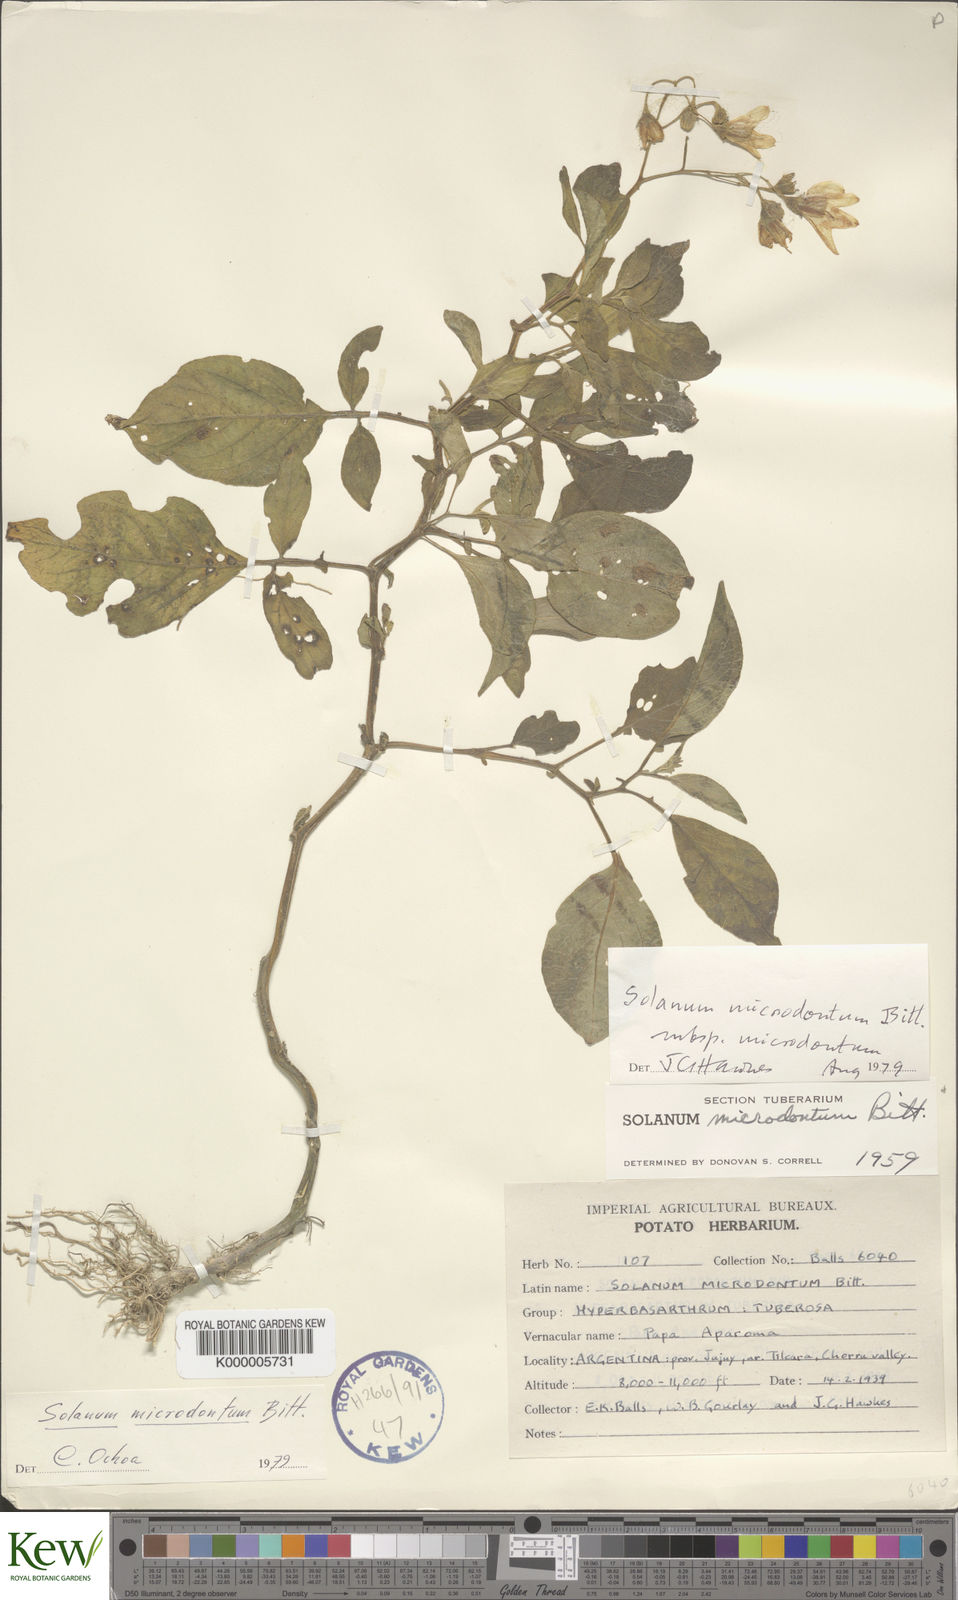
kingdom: Plantae
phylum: Tracheophyta
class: Magnoliopsida
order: Solanales
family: Solanaceae
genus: Solanum
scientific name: Solanum microdontum
